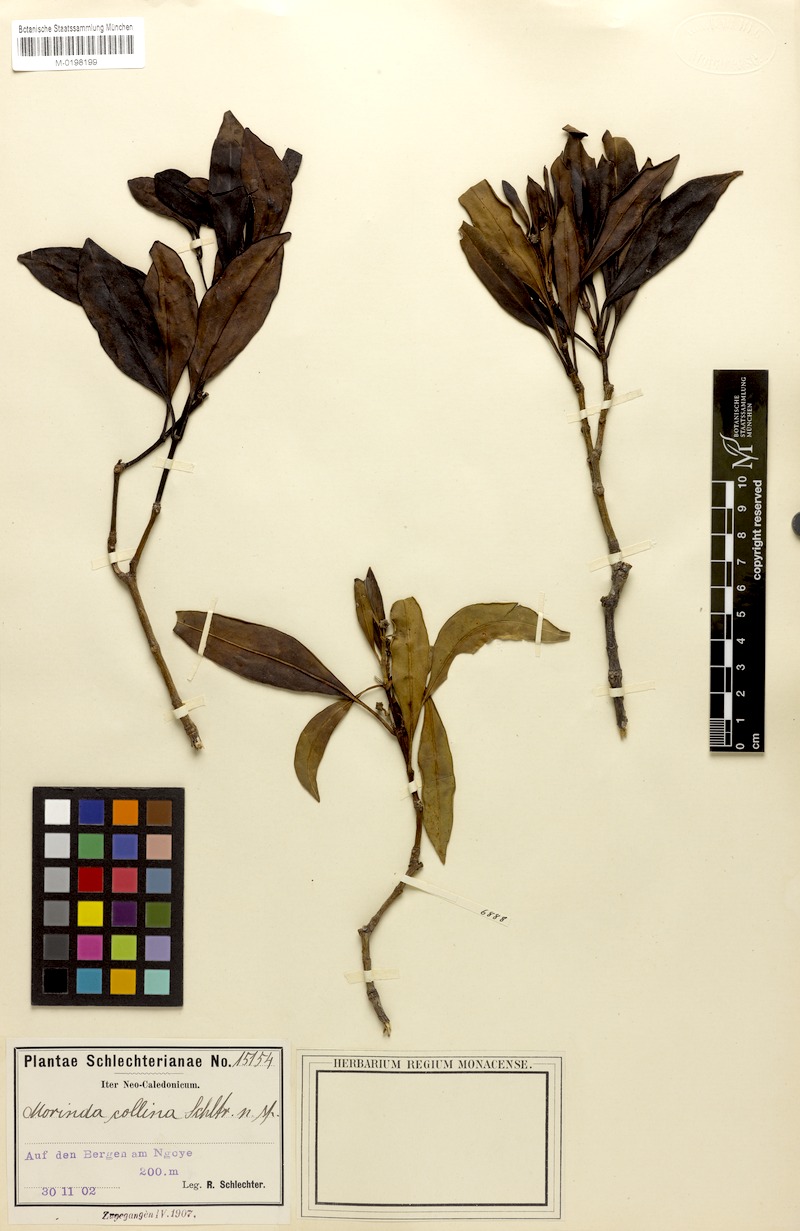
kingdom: Plantae
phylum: Tracheophyta
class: Magnoliopsida
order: Gentianales
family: Rubiaceae
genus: Gynochthodes
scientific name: Gynochthodes collina
